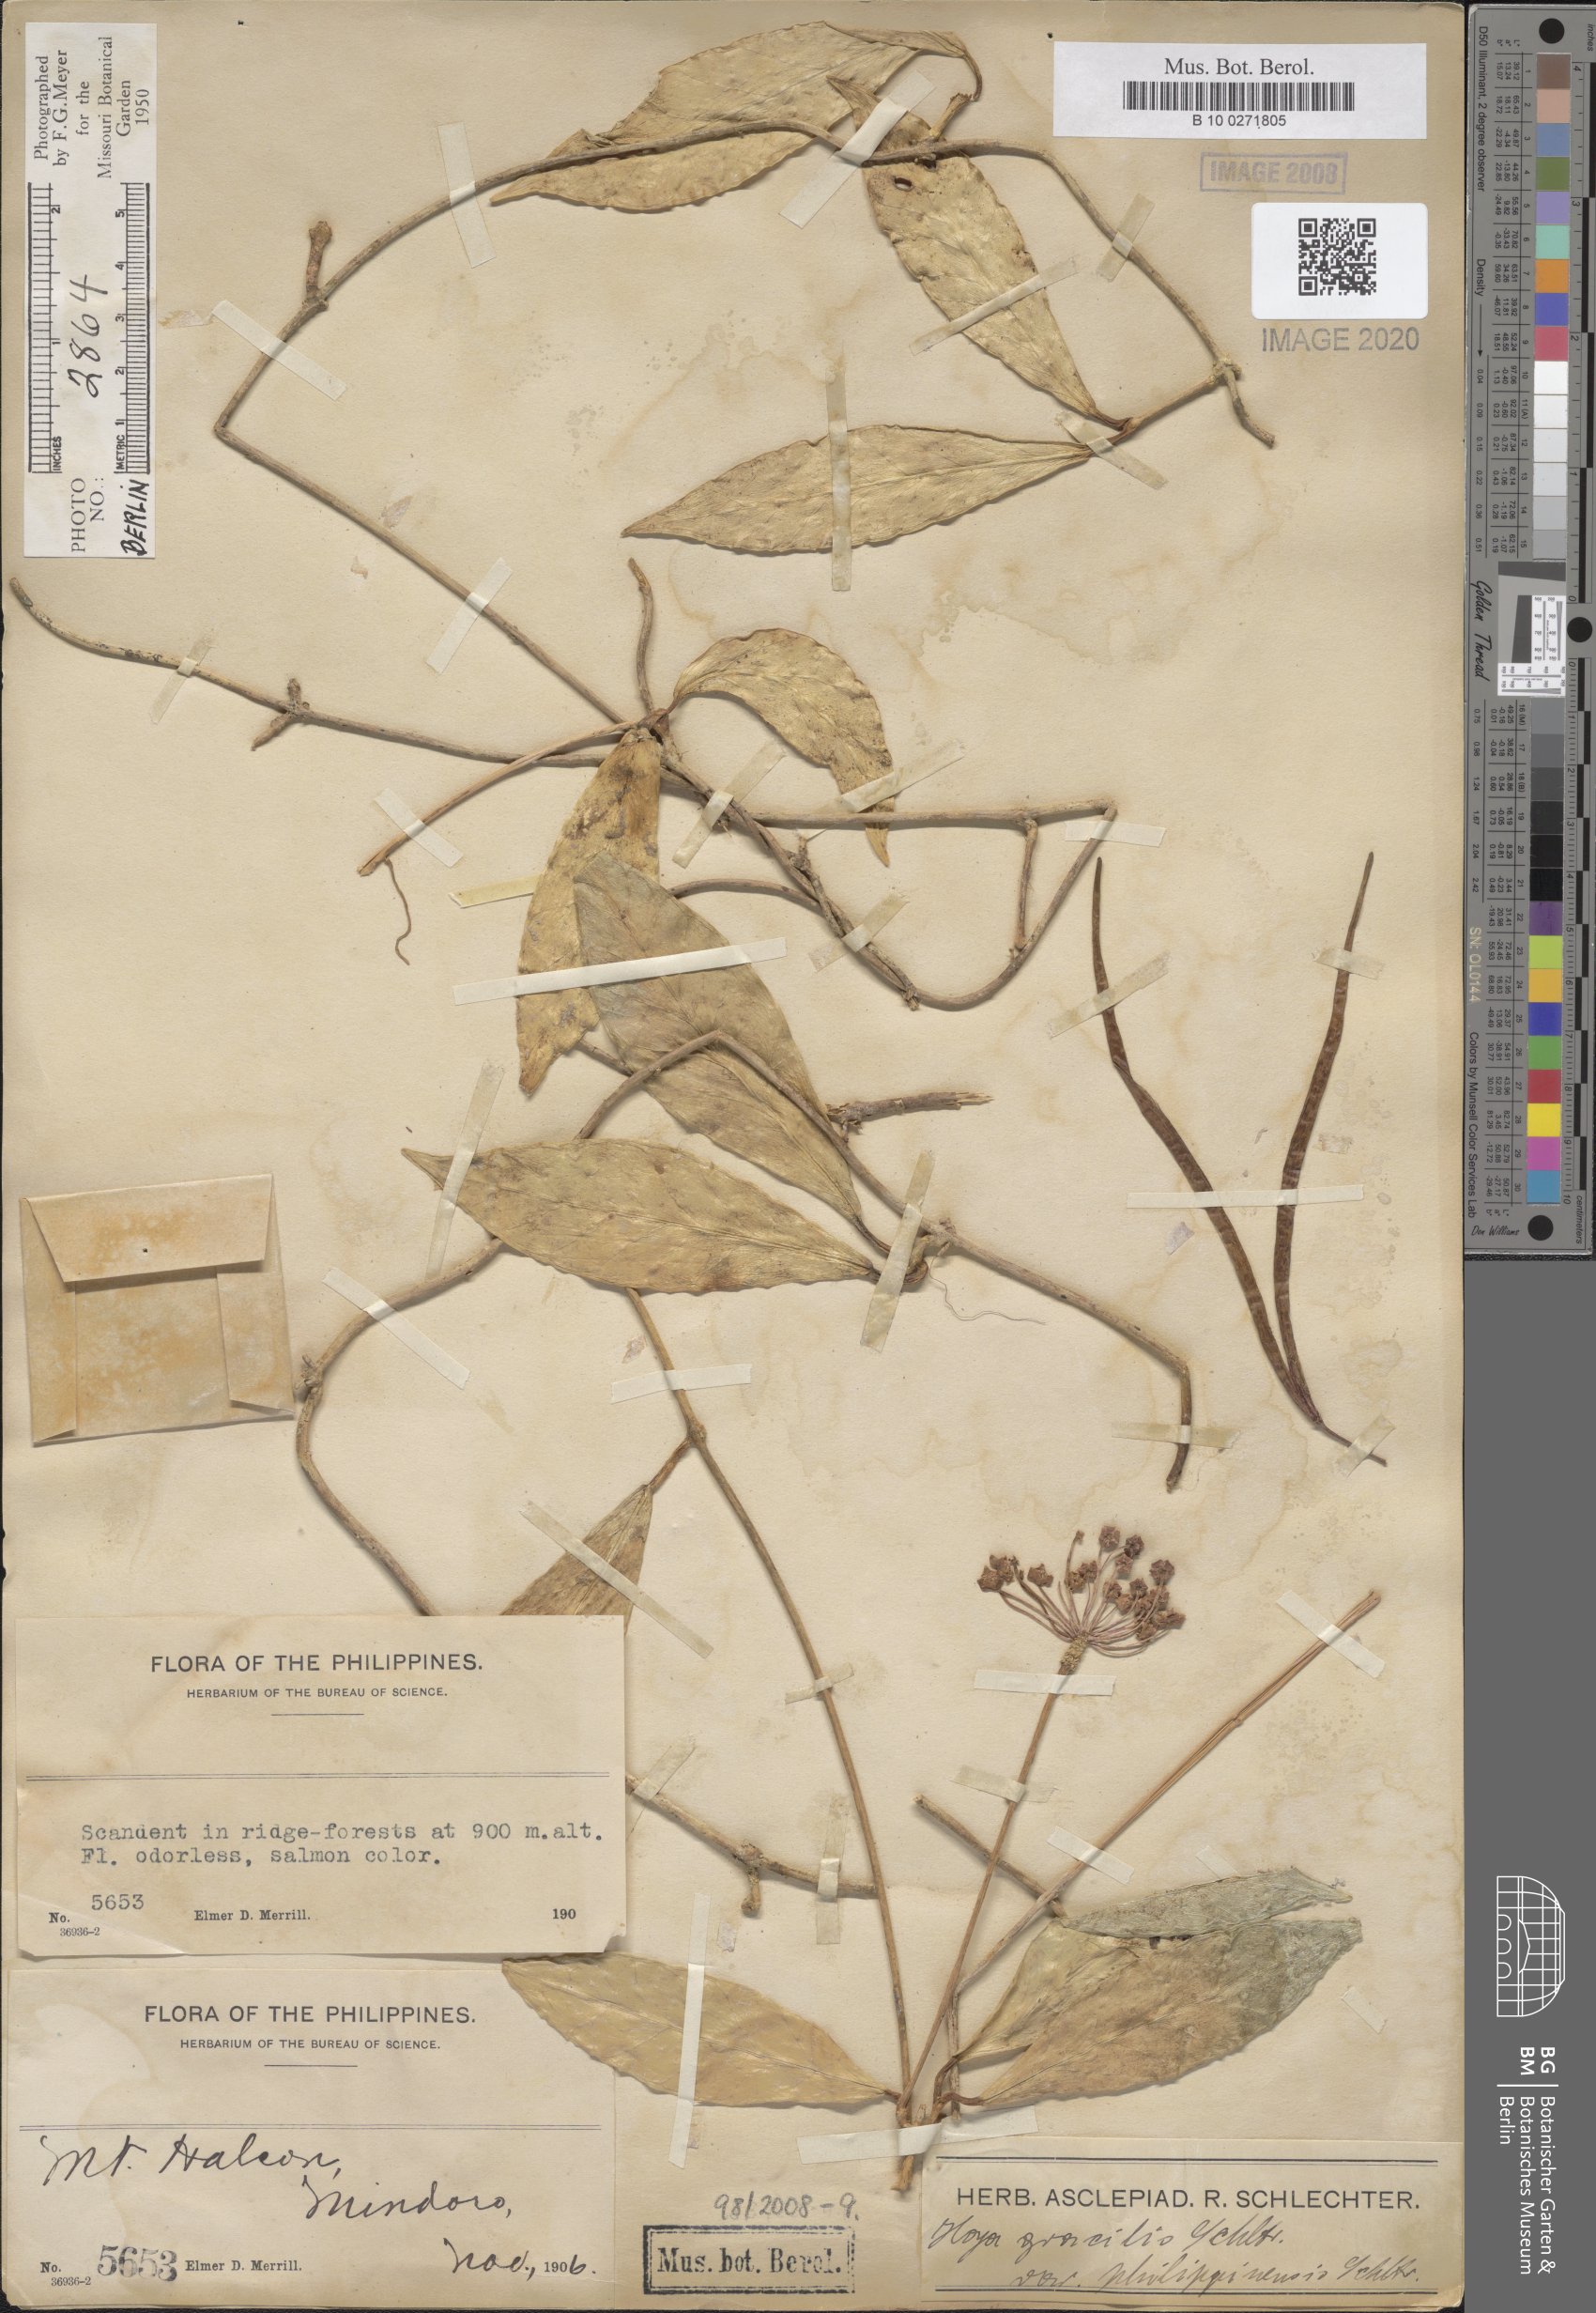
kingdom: Plantae
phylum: Tracheophyta
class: Magnoliopsida
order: Gentianales
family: Apocynaceae
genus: Hoya
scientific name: Hoya gracilis
